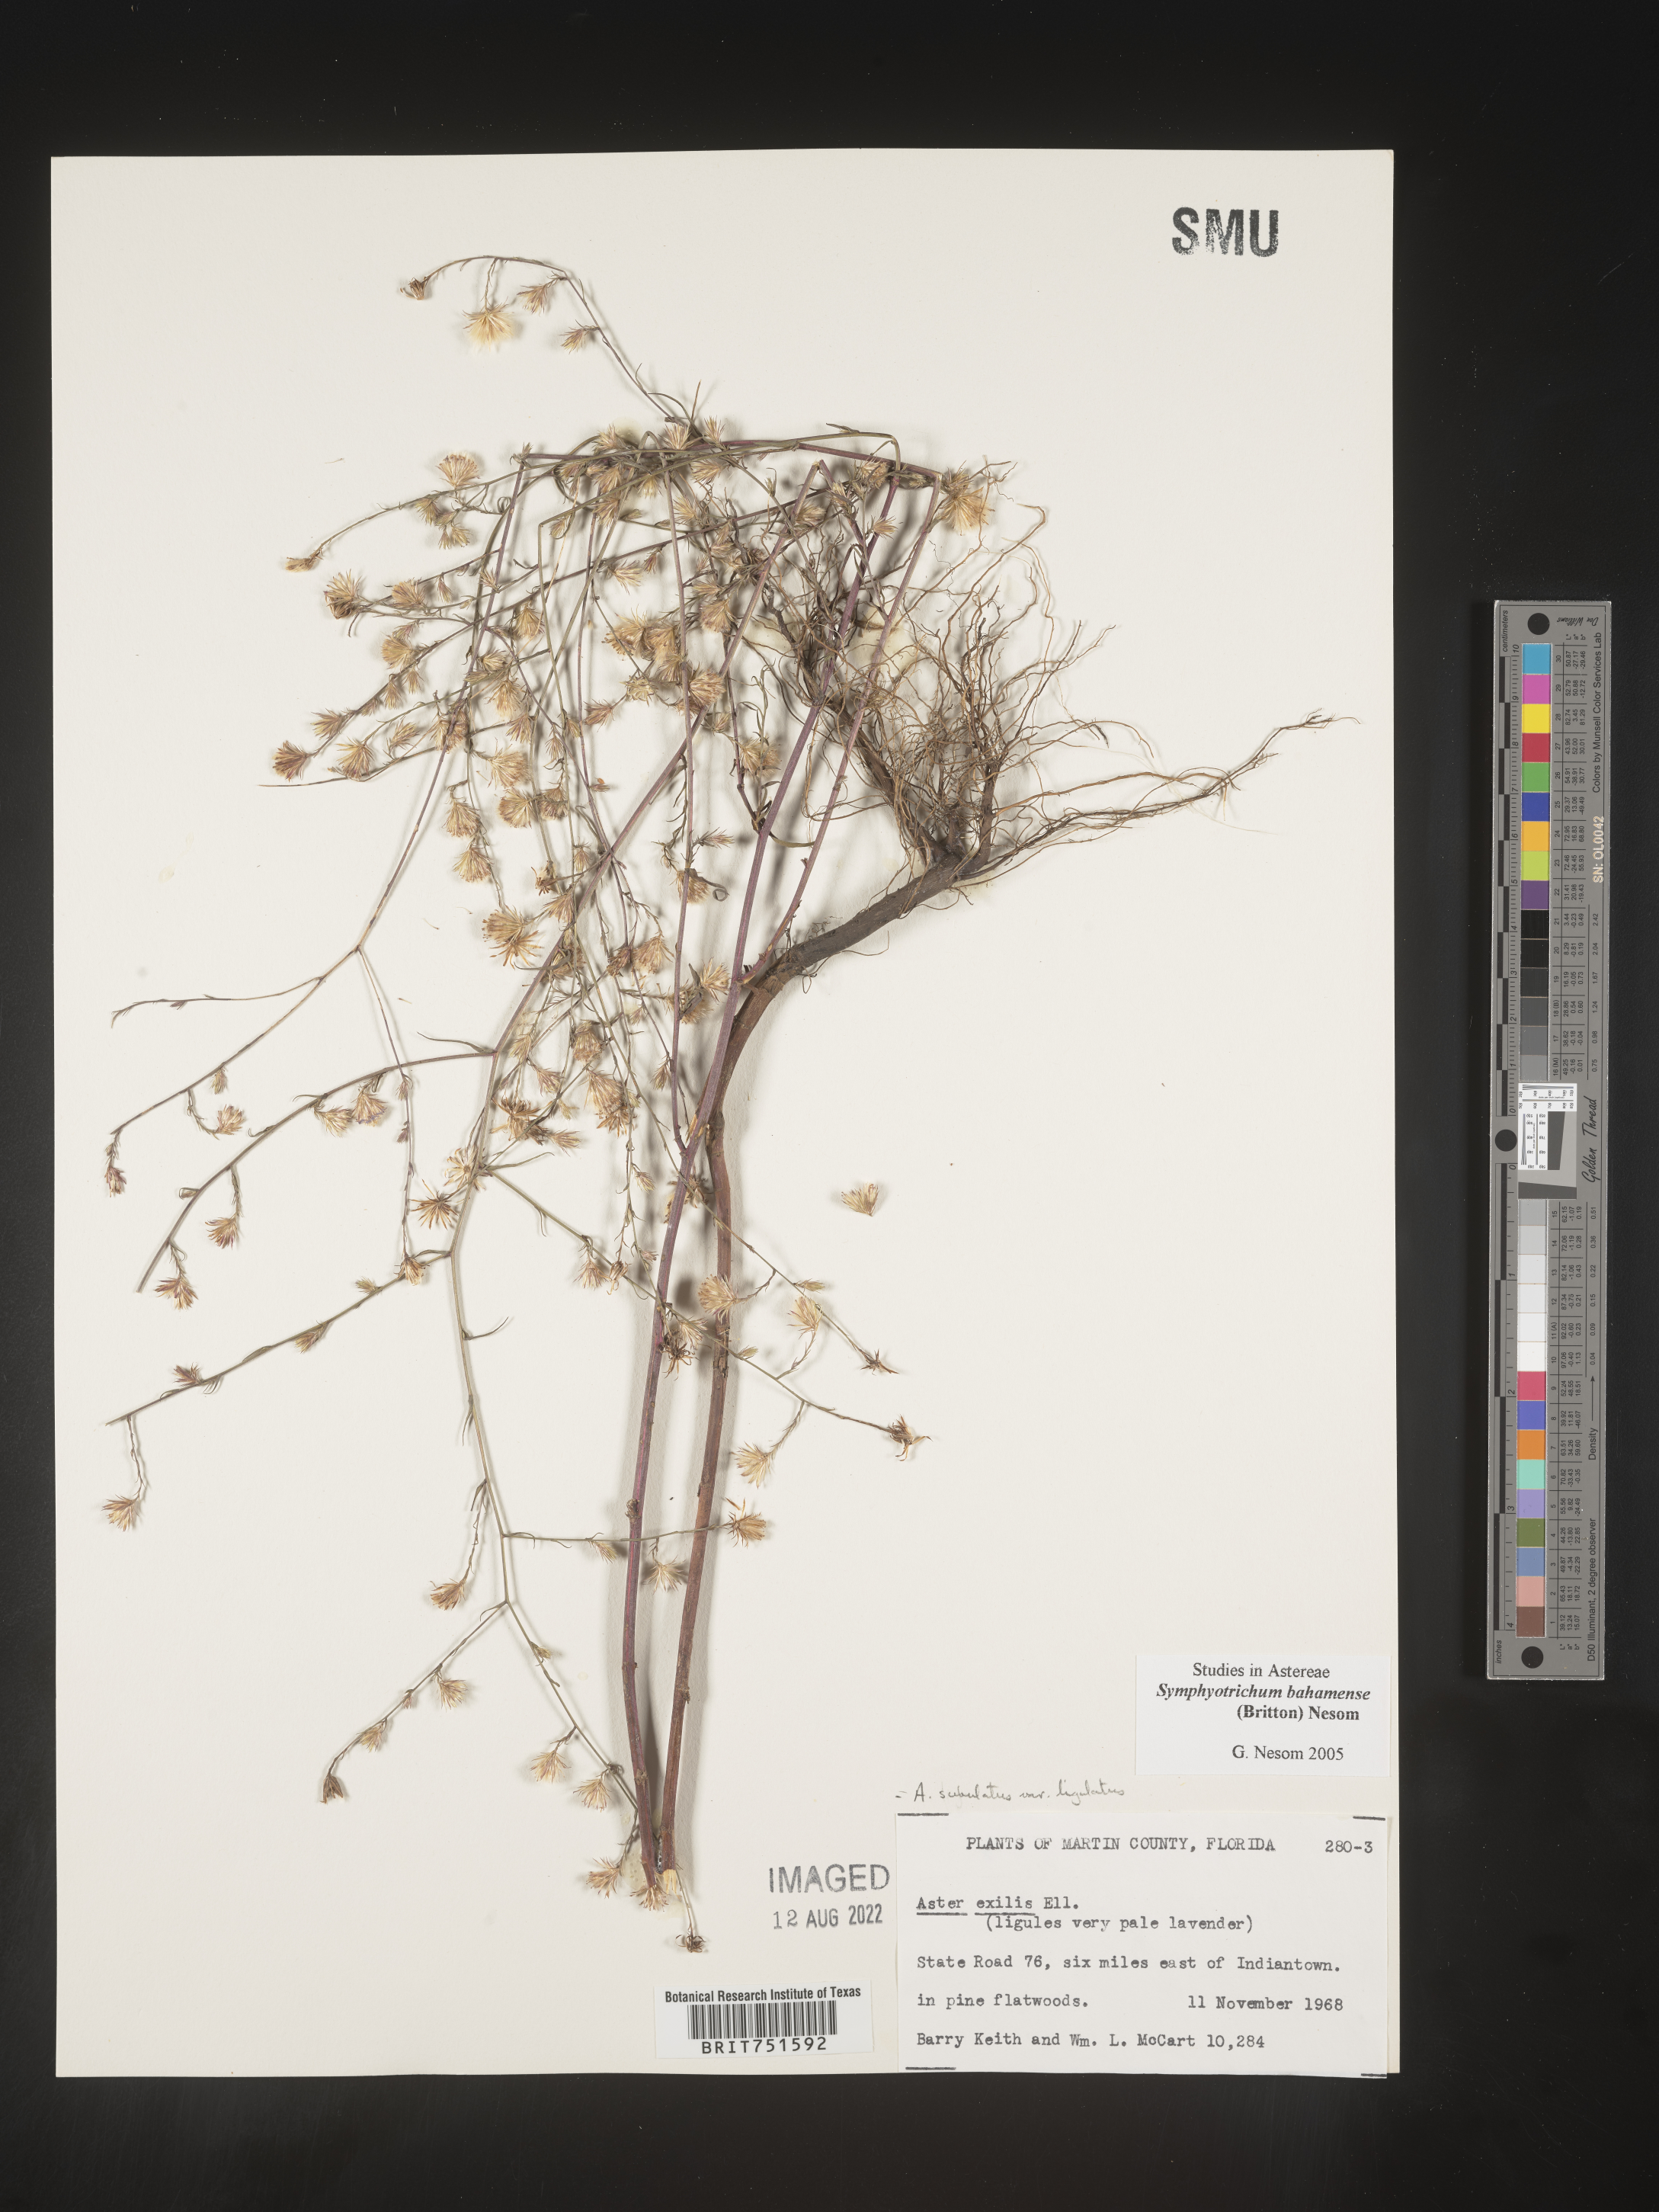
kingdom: Plantae
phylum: Tracheophyta
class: Magnoliopsida
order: Asterales
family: Asteraceae
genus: Symphyotrichum
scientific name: Symphyotrichum subulatum
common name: Annual saltmarsh aster
